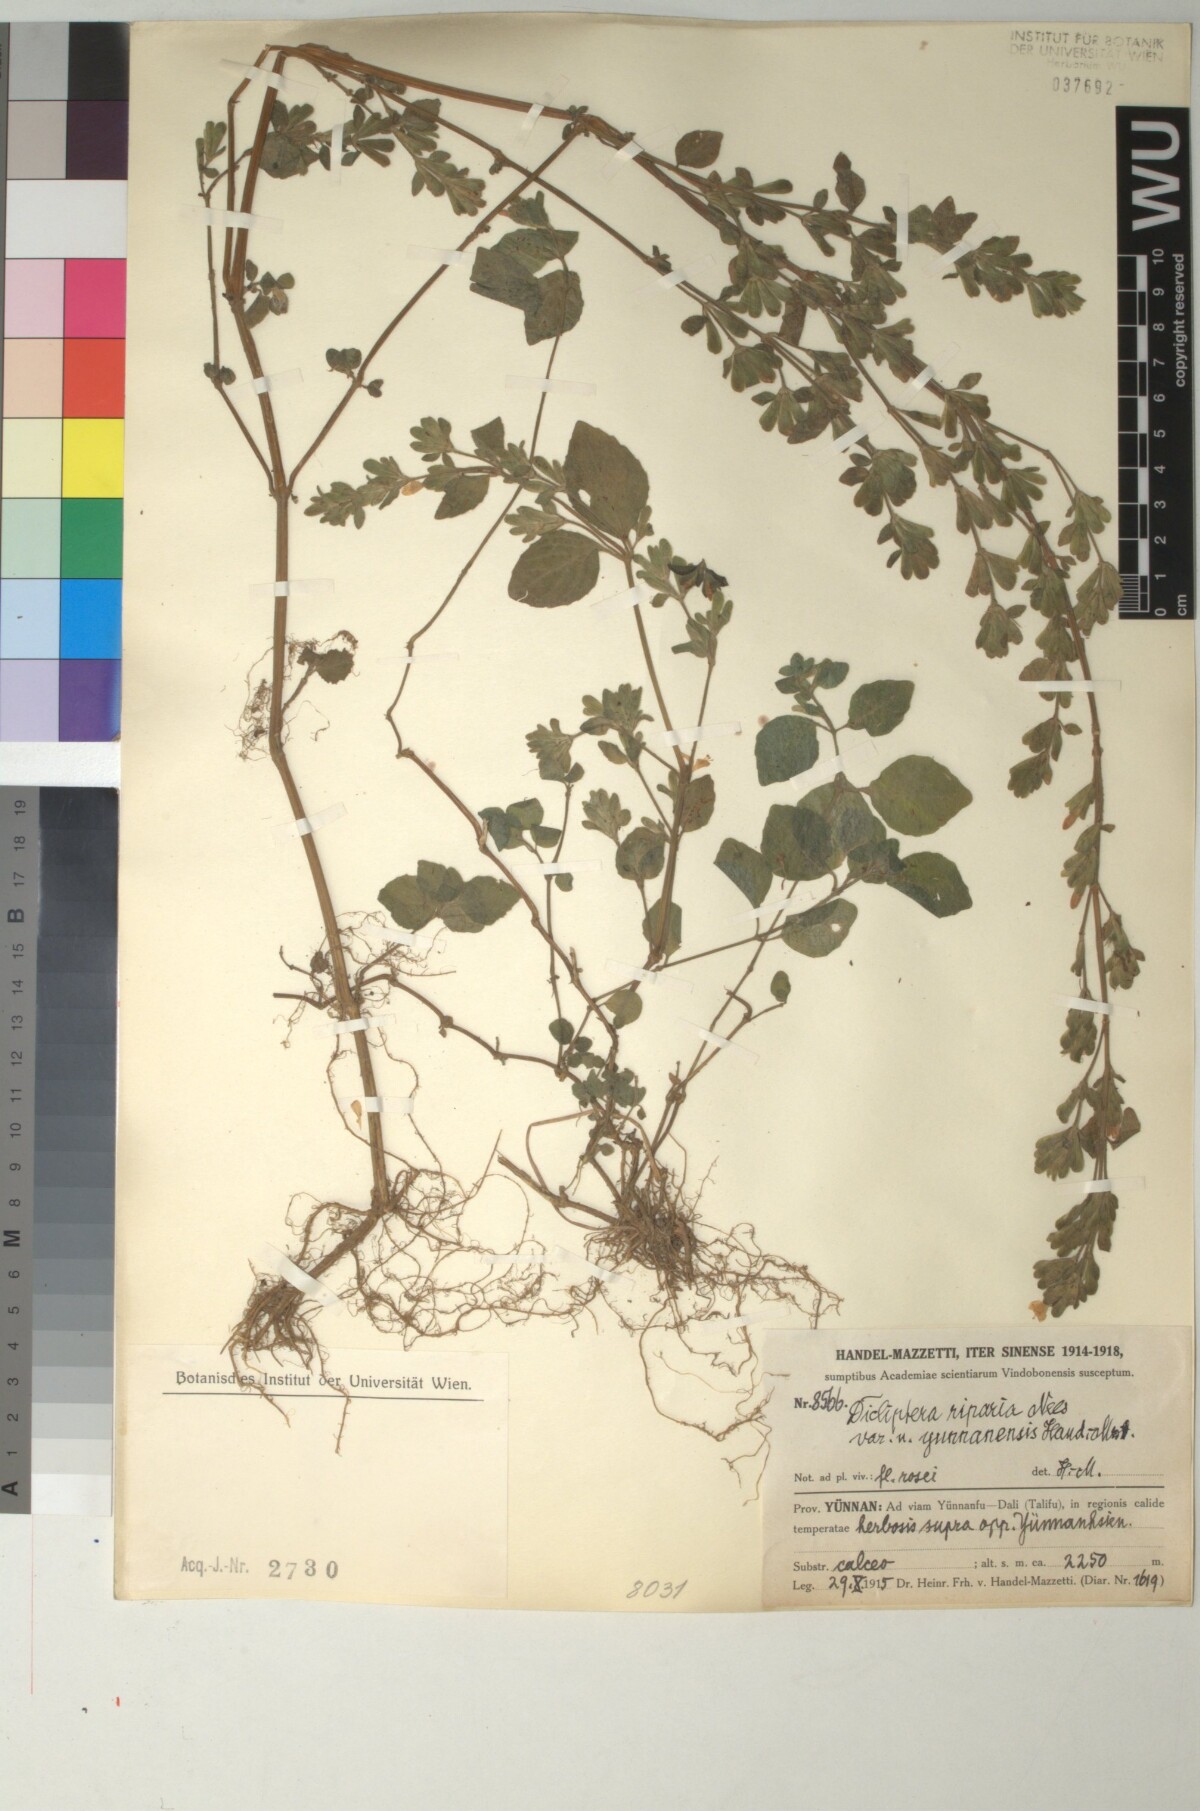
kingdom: Plantae
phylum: Tracheophyta
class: Magnoliopsida
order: Lamiales
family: Acanthaceae
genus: Hypoestes
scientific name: Hypoestes triflora
